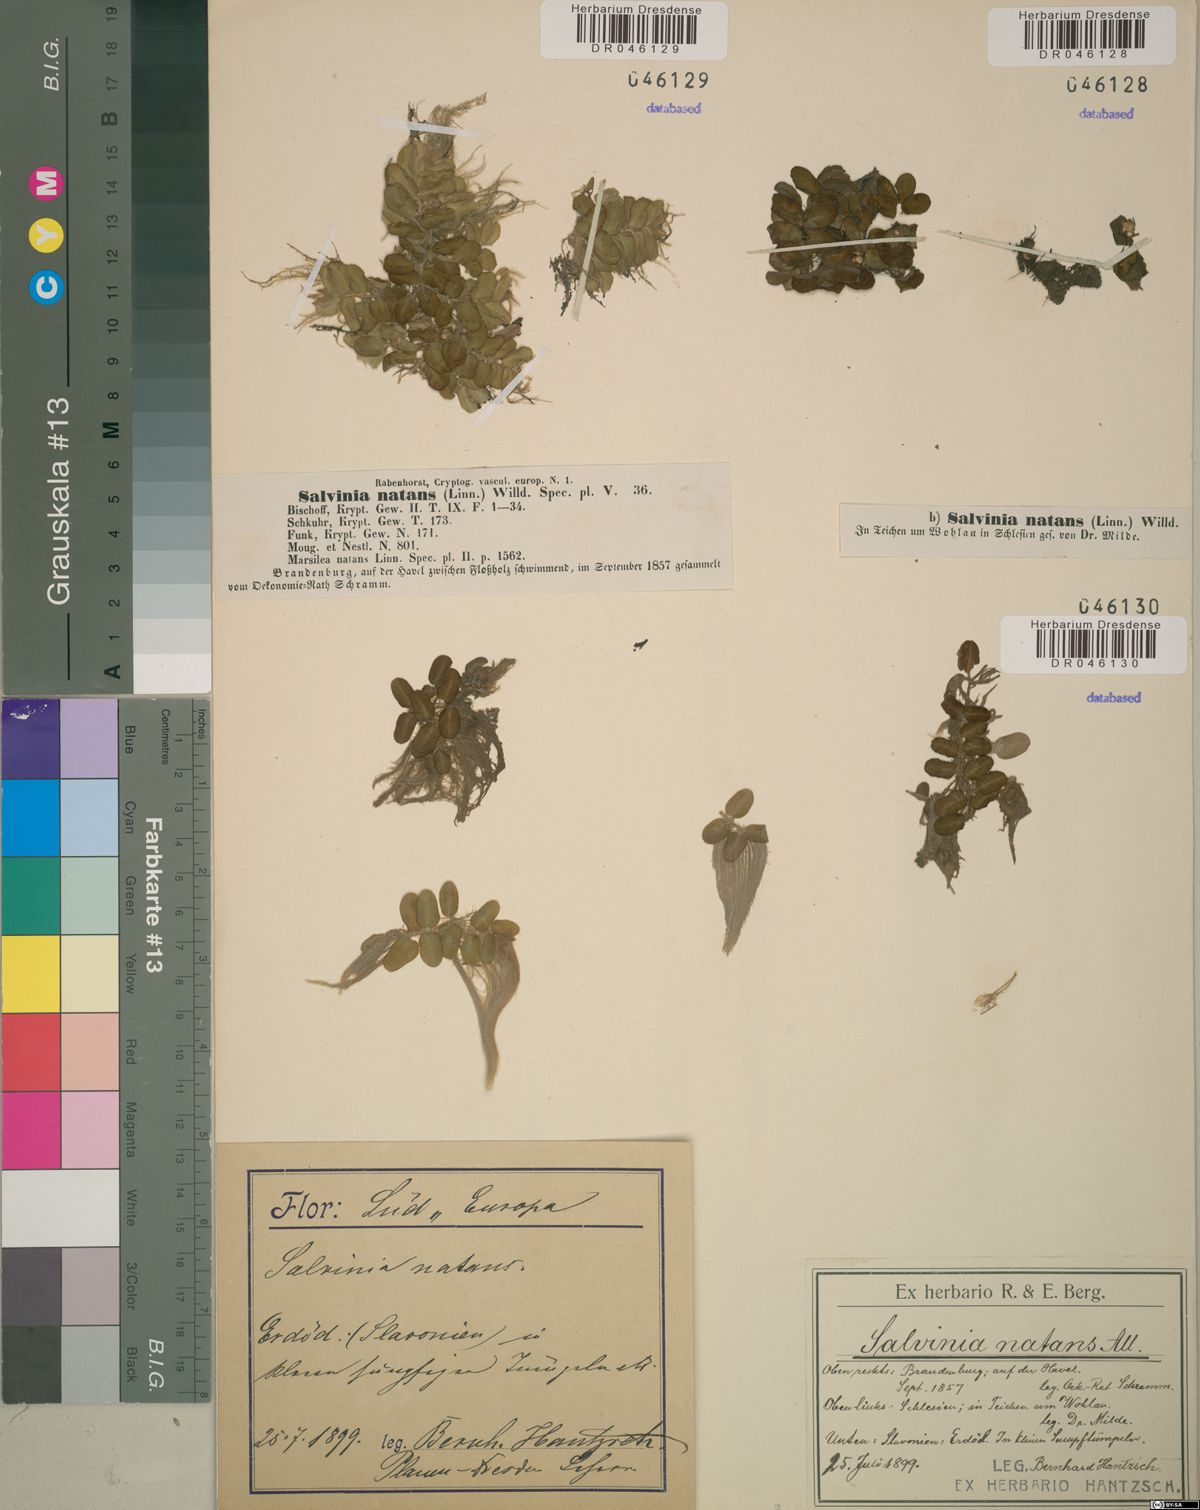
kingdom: Plantae
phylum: Tracheophyta
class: Polypodiopsida
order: Salviniales
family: Salviniaceae
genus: Salvinia
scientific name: Salvinia natans
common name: Floating fern
